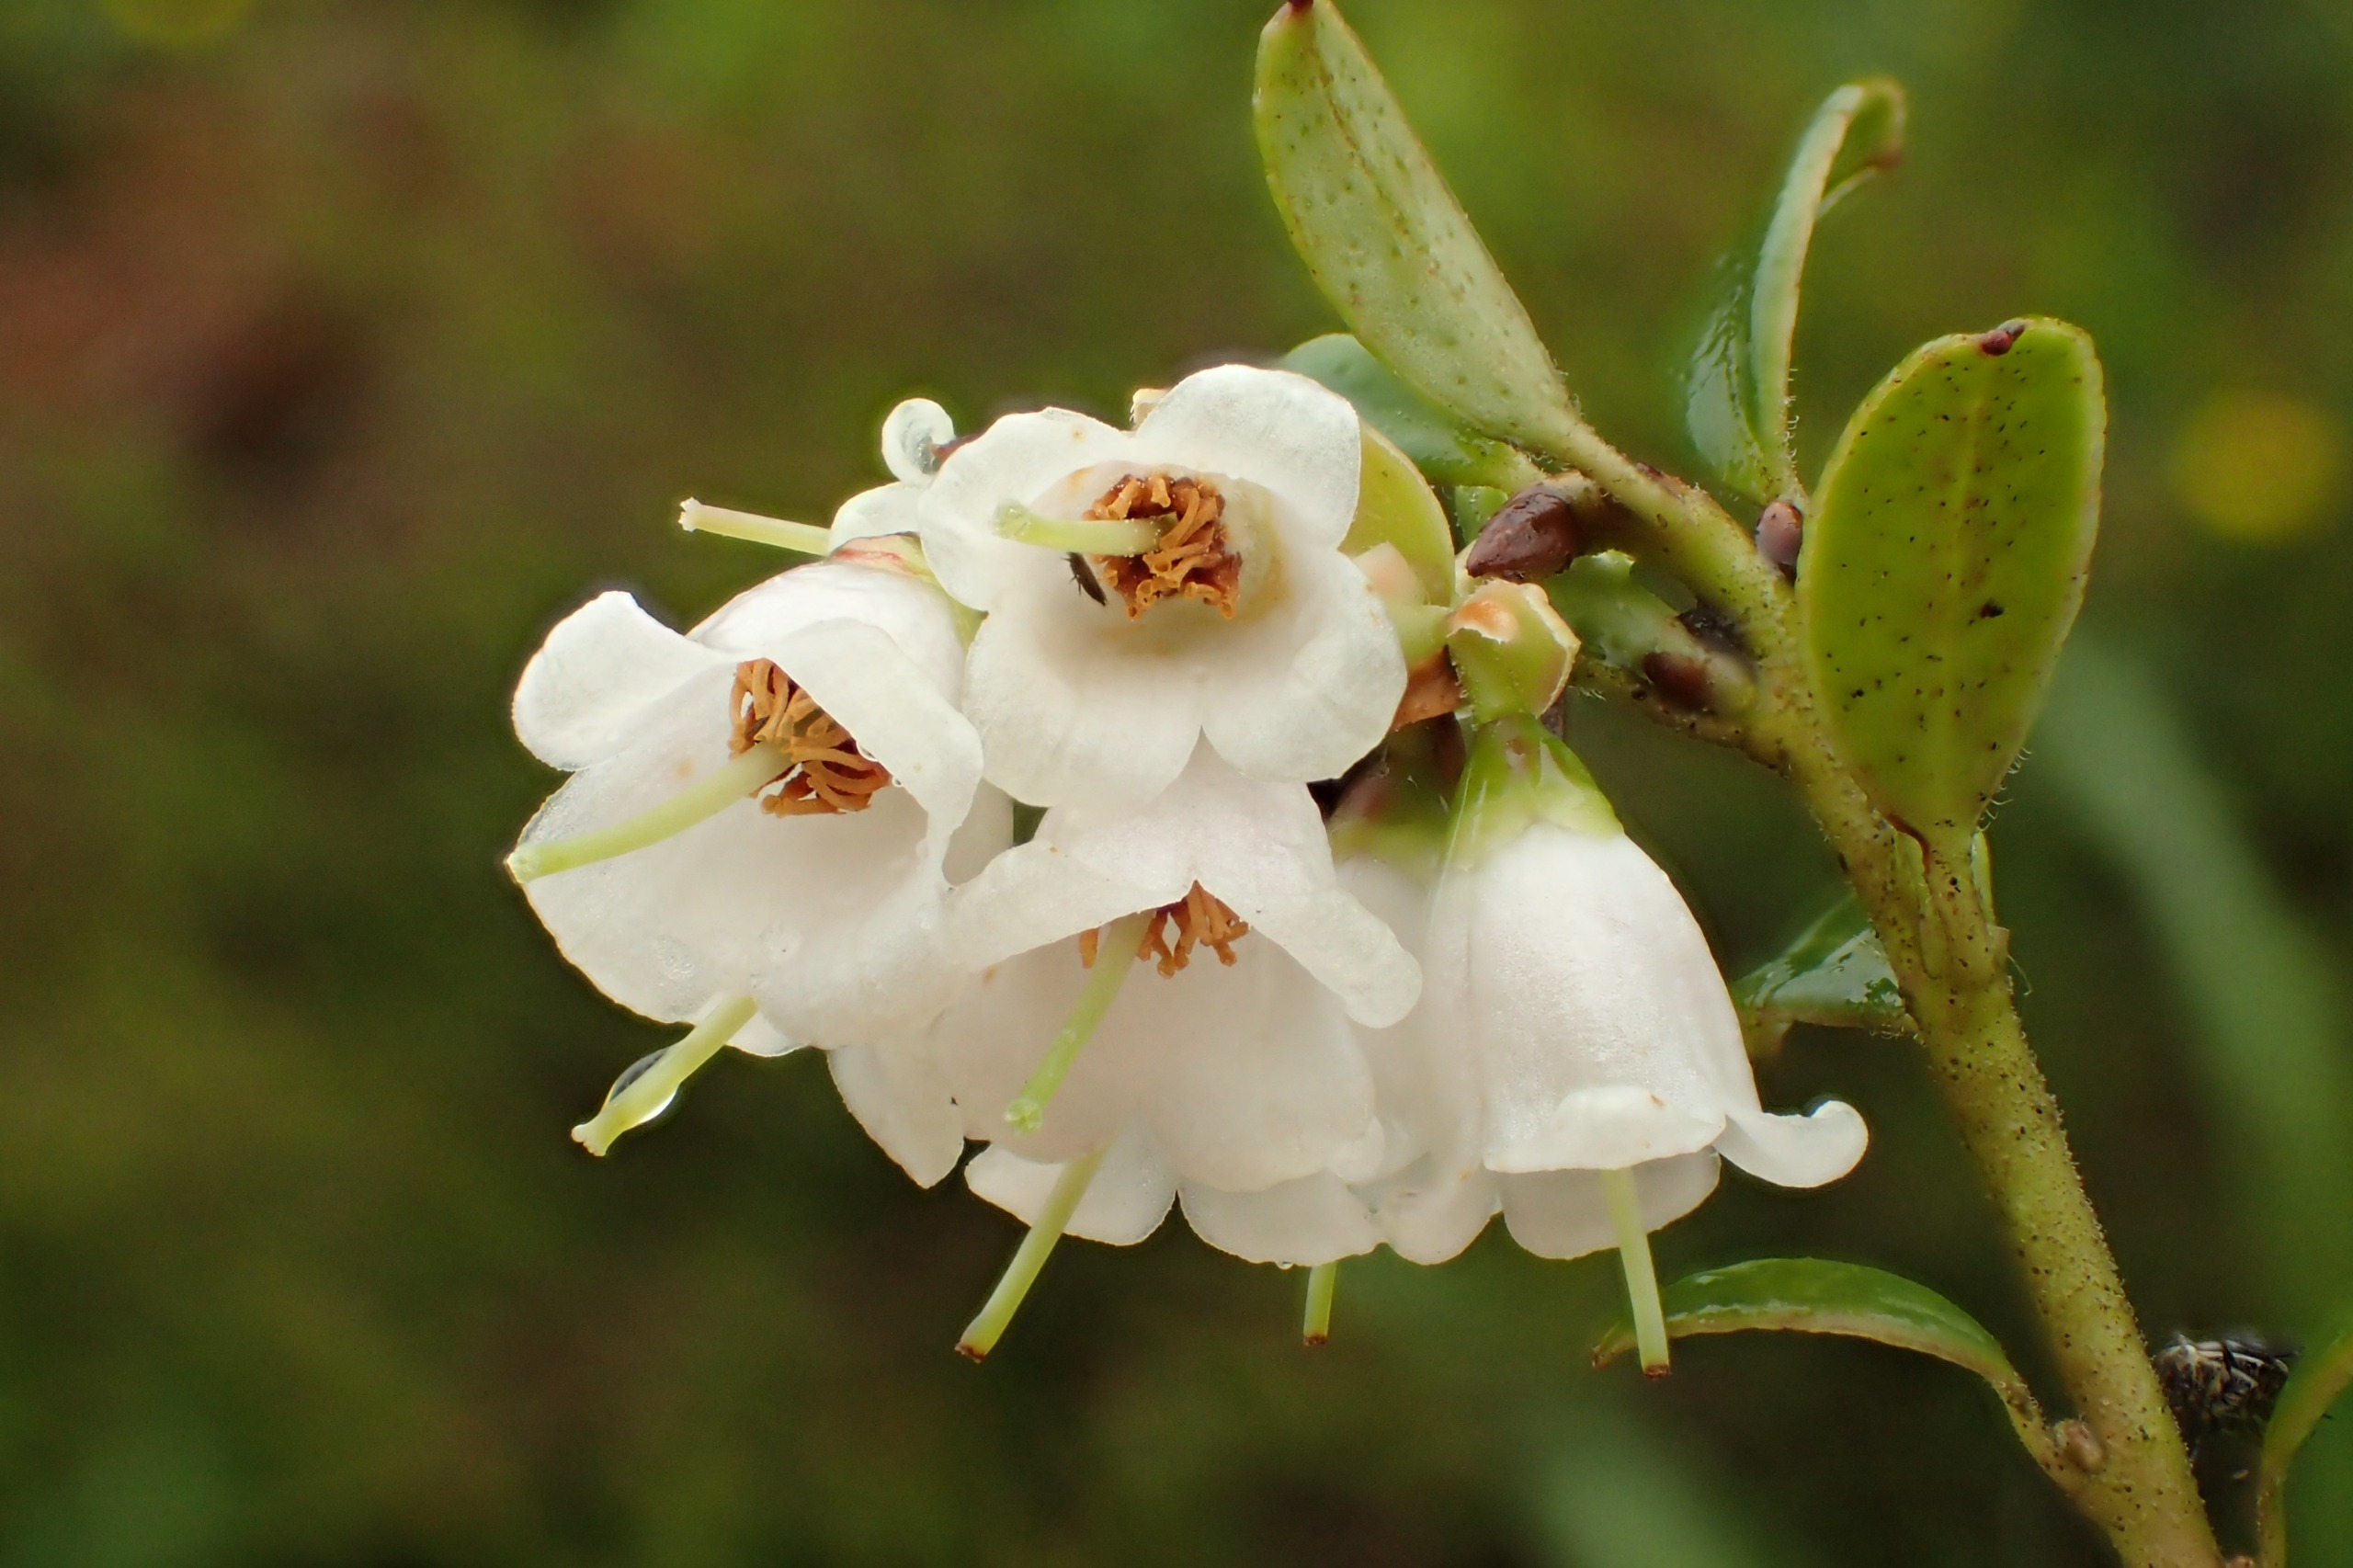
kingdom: Plantae
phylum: Tracheophyta
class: Magnoliopsida
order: Ericales
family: Ericaceae
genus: Vaccinium
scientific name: Vaccinium vitis-idaea
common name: Tyttebær
